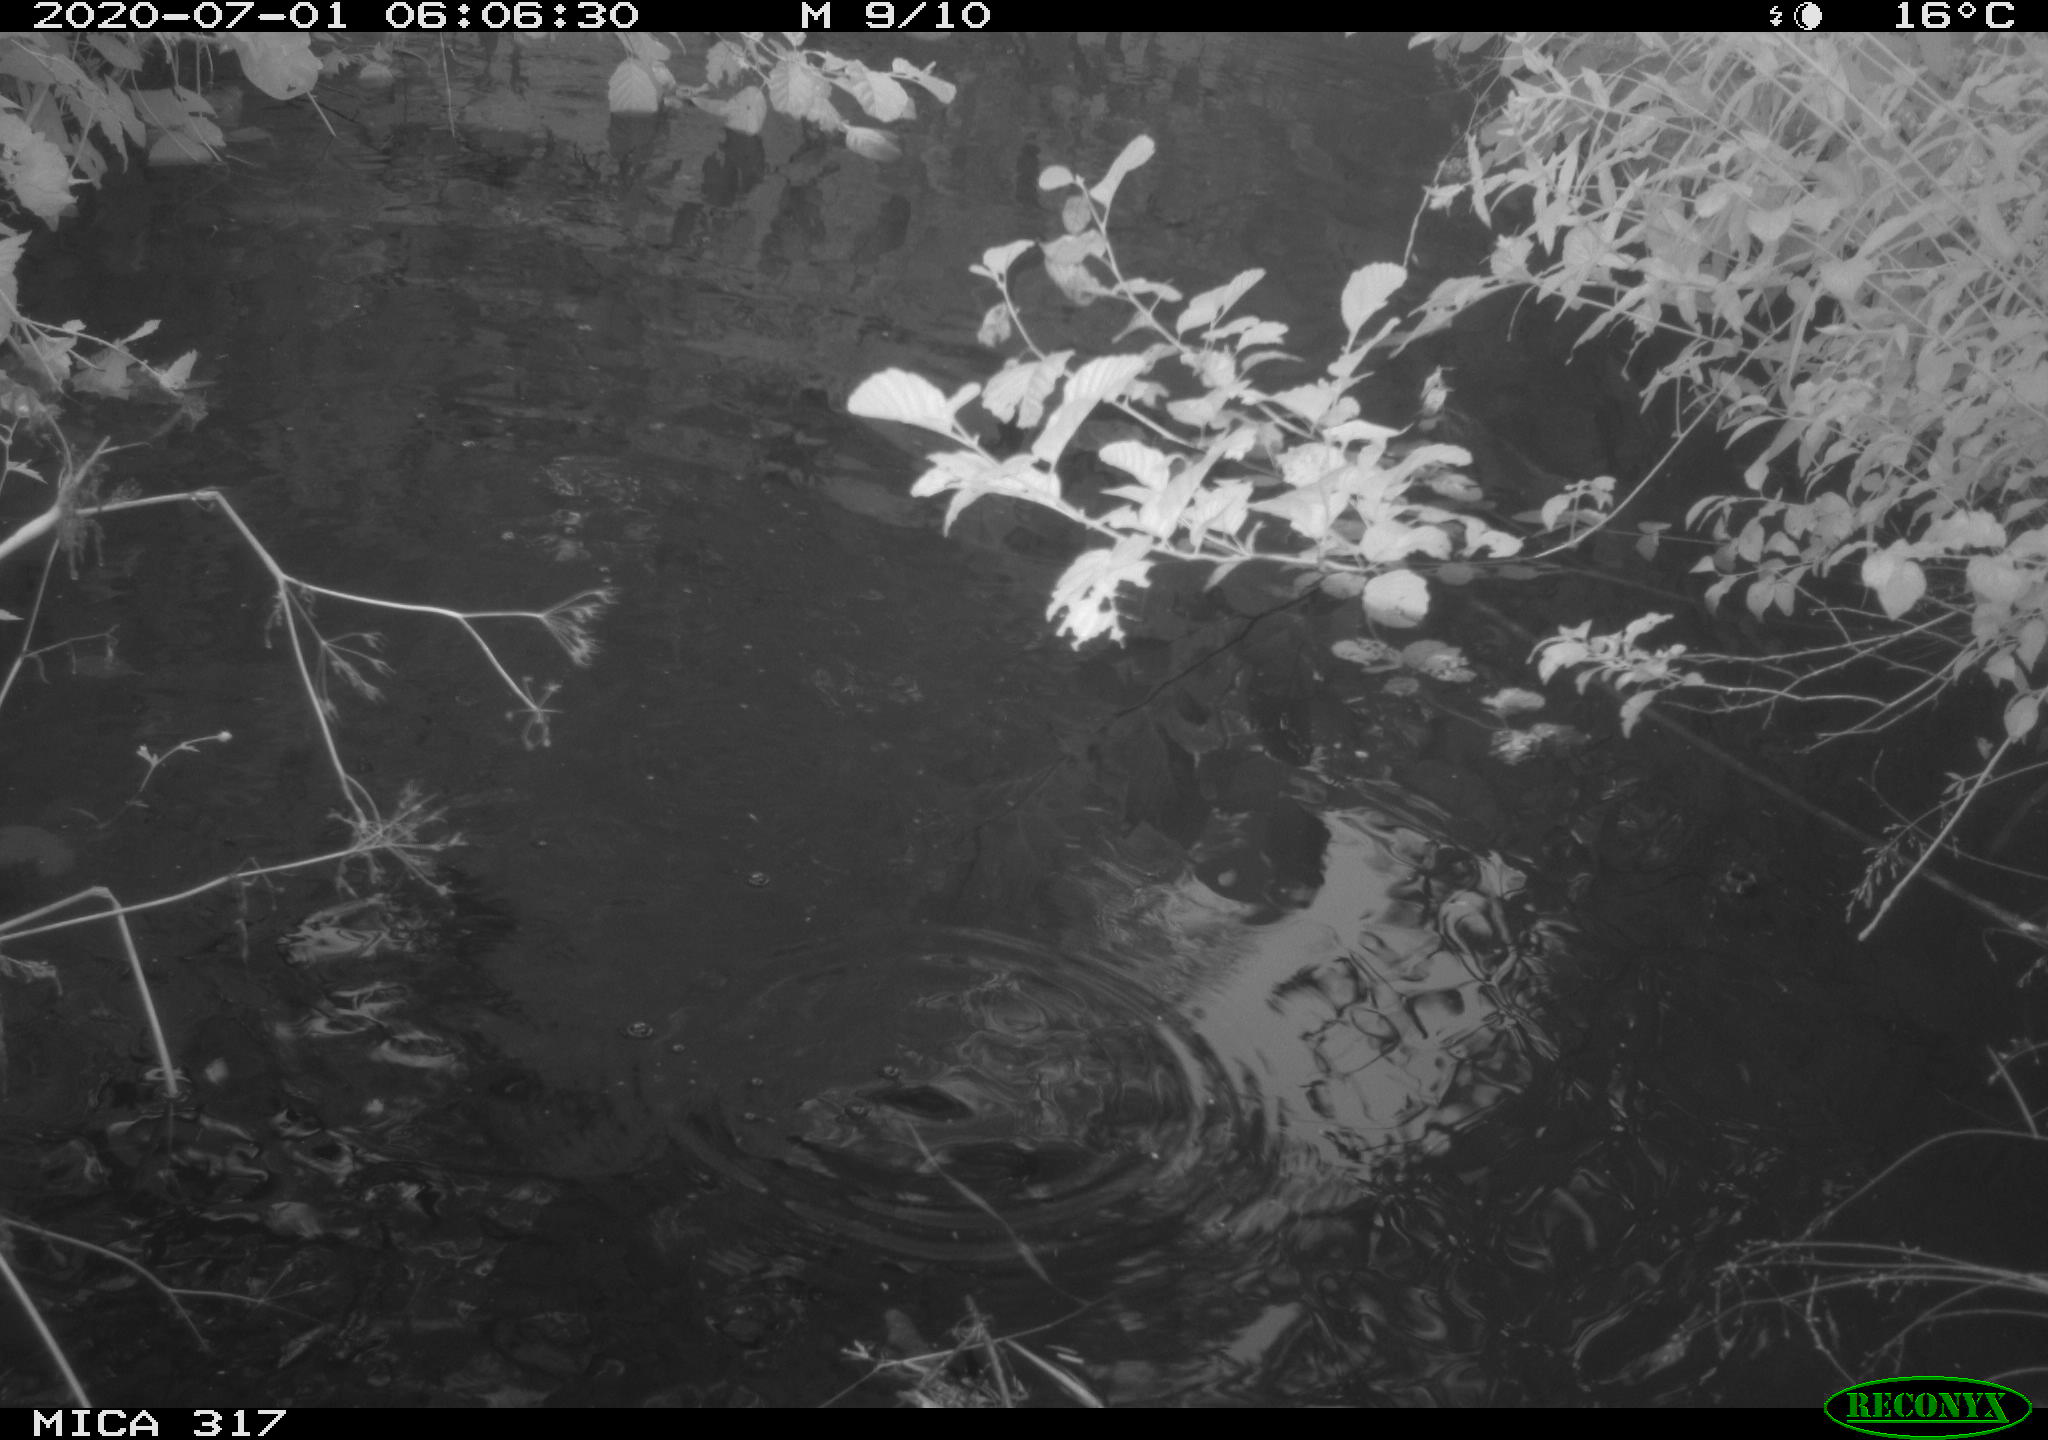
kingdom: Animalia
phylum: Chordata
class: Aves
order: Anseriformes
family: Anatidae
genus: Anas
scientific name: Anas platyrhynchos
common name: Mallard
